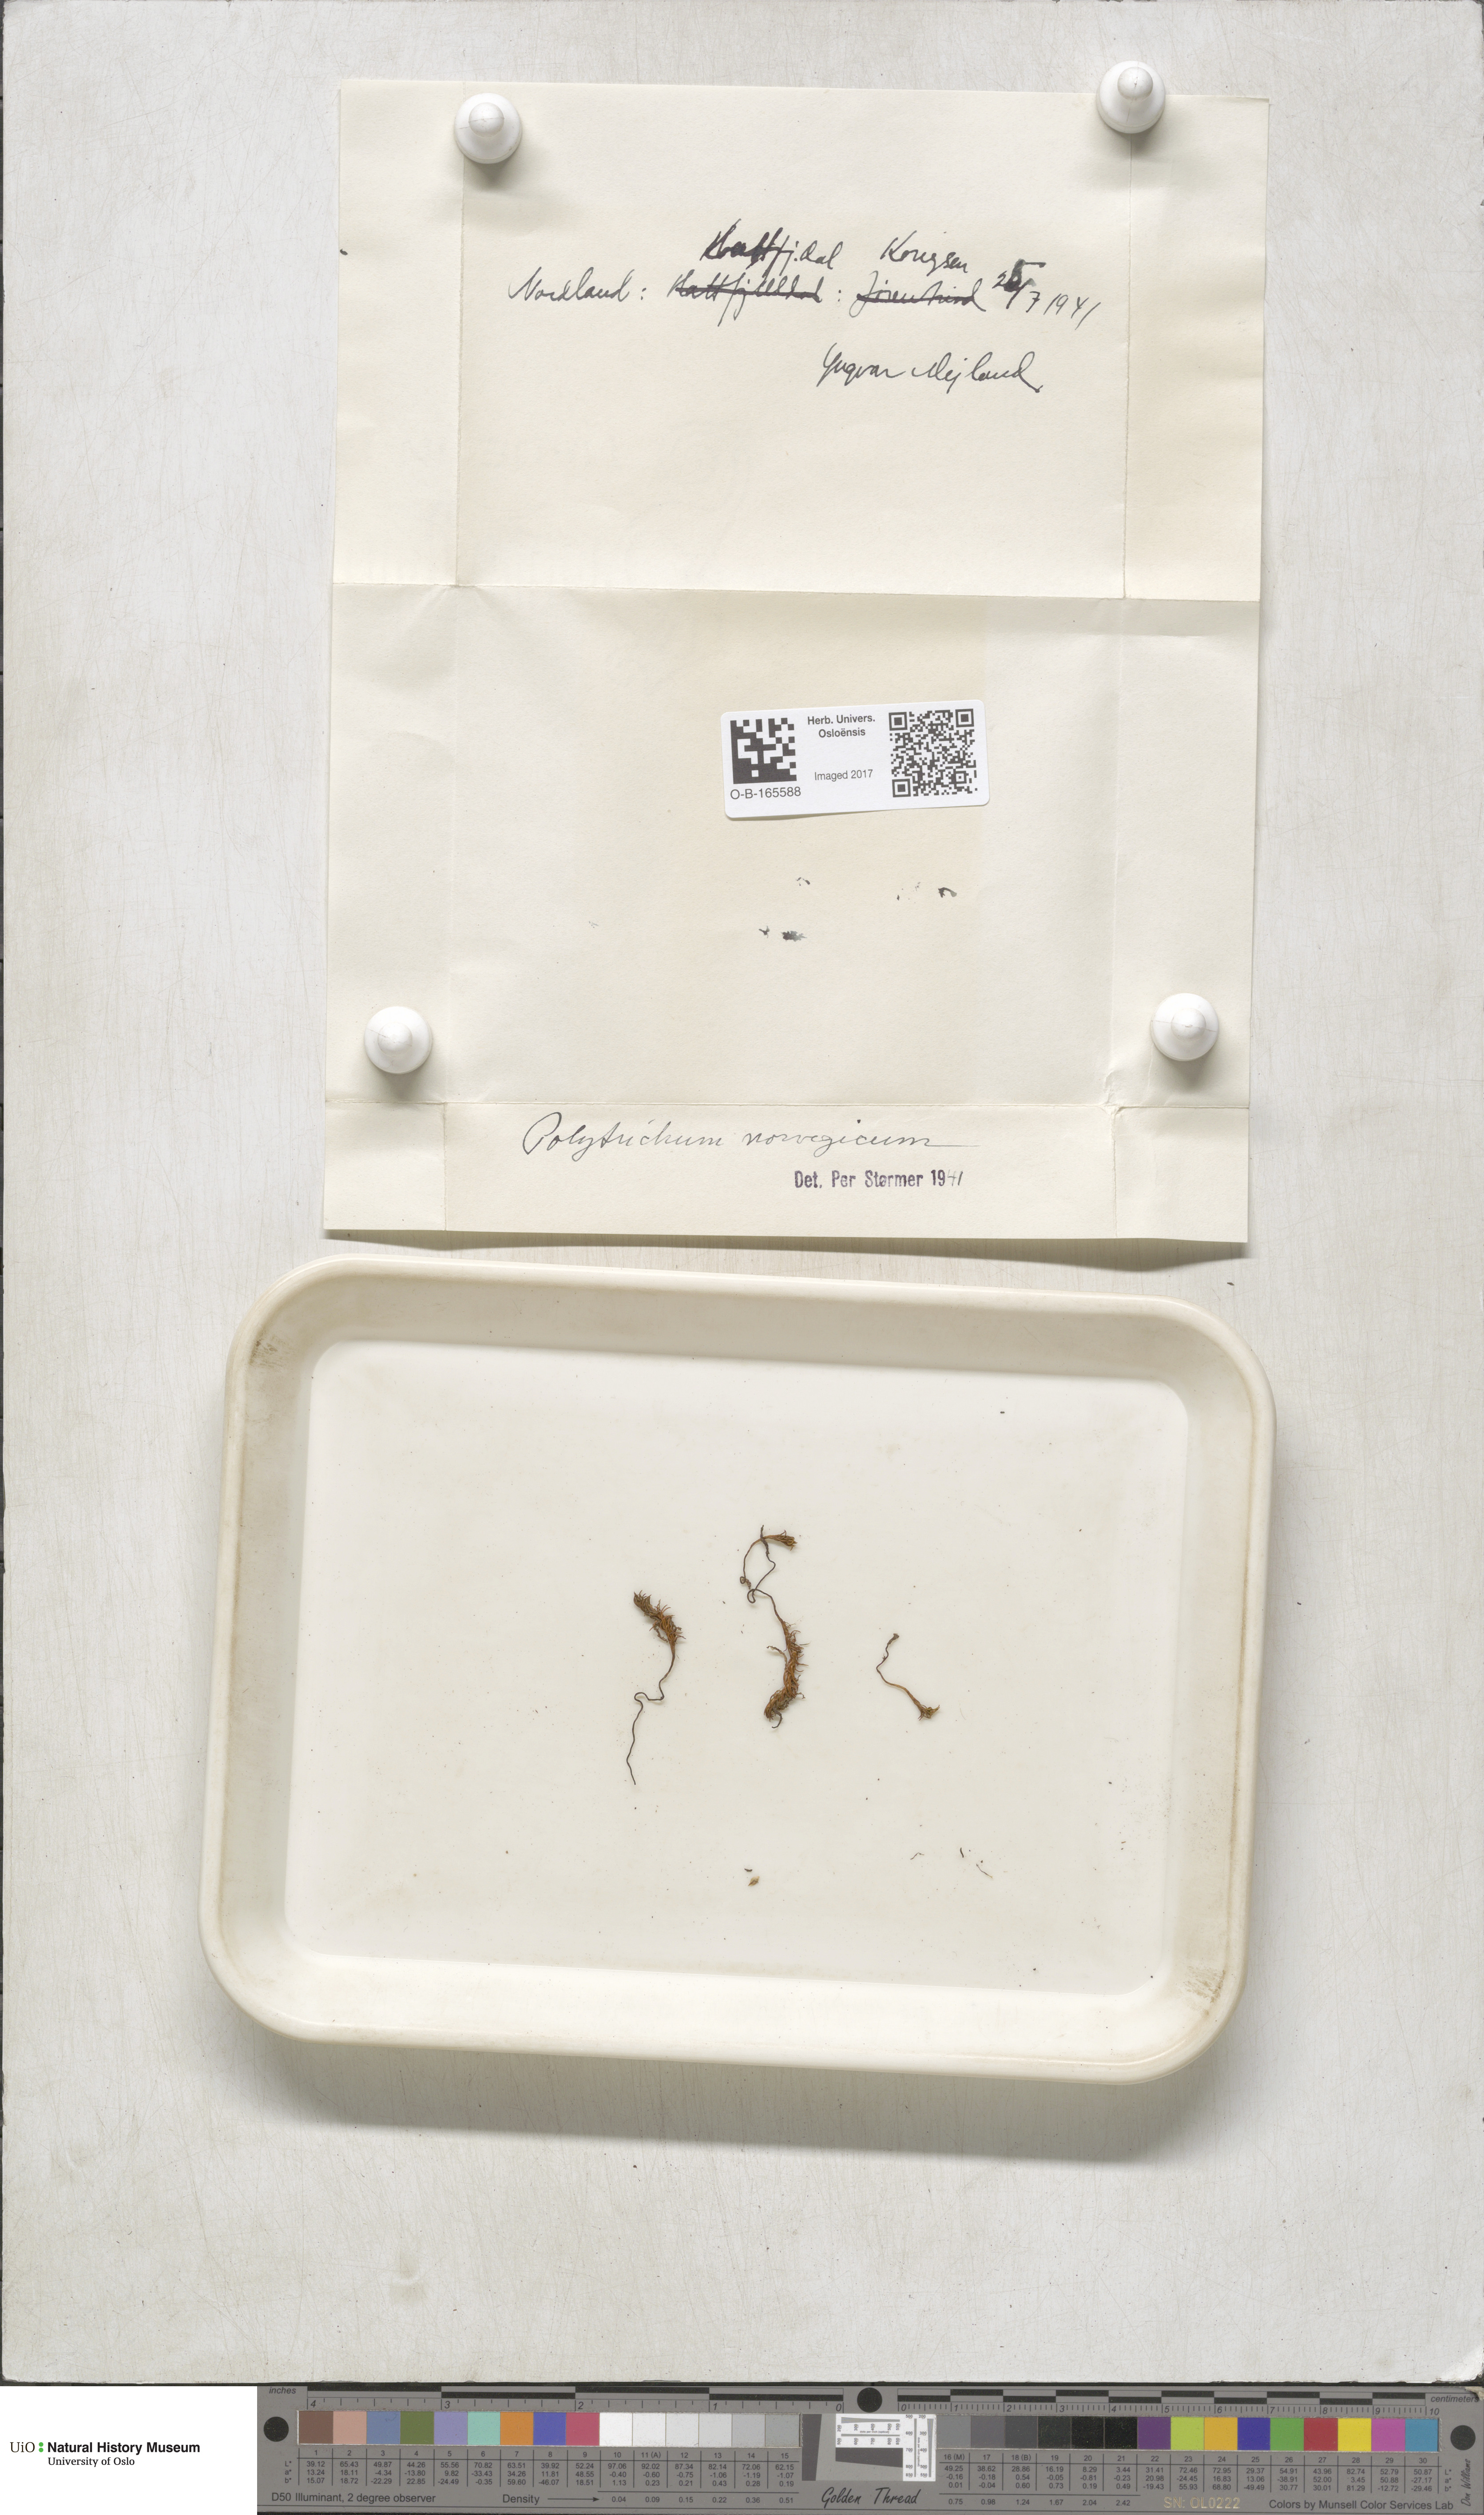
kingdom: Plantae
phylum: Bryophyta
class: Polytrichopsida
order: Polytrichales
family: Polytrichaceae
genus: Polytrichastrum
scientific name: Polytrichastrum sexangulare
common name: Northern haircap
